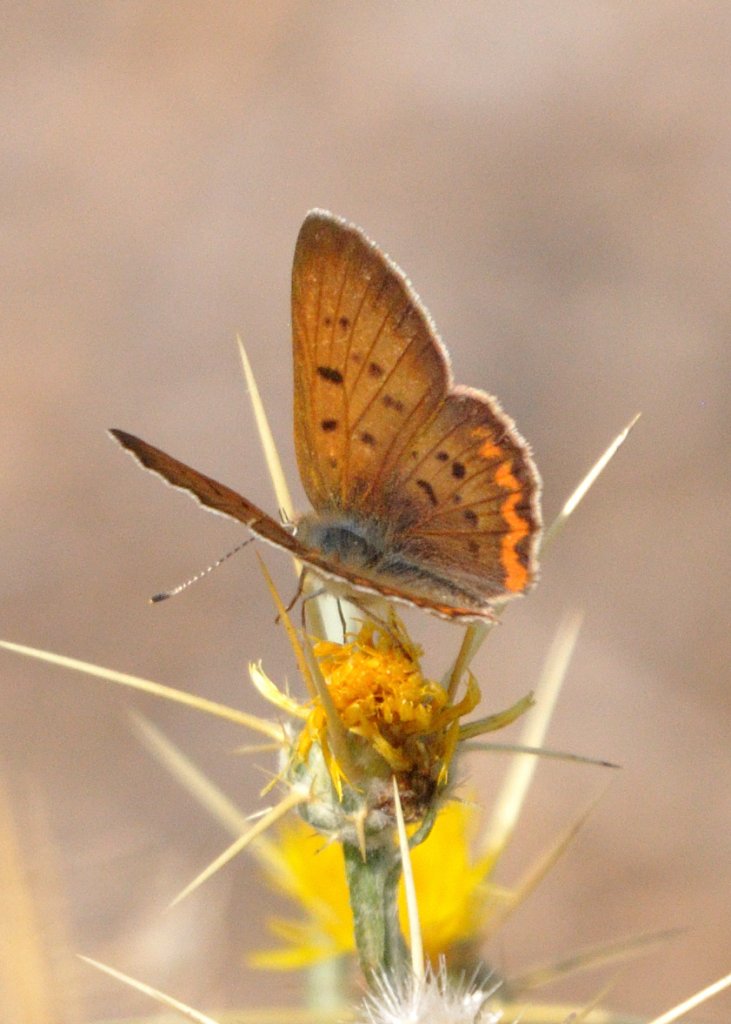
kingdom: Animalia
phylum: Arthropoda
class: Insecta
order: Lepidoptera
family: Sesiidae
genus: Sesia
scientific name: Sesia Lycaena helloides
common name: Purplish Copper
